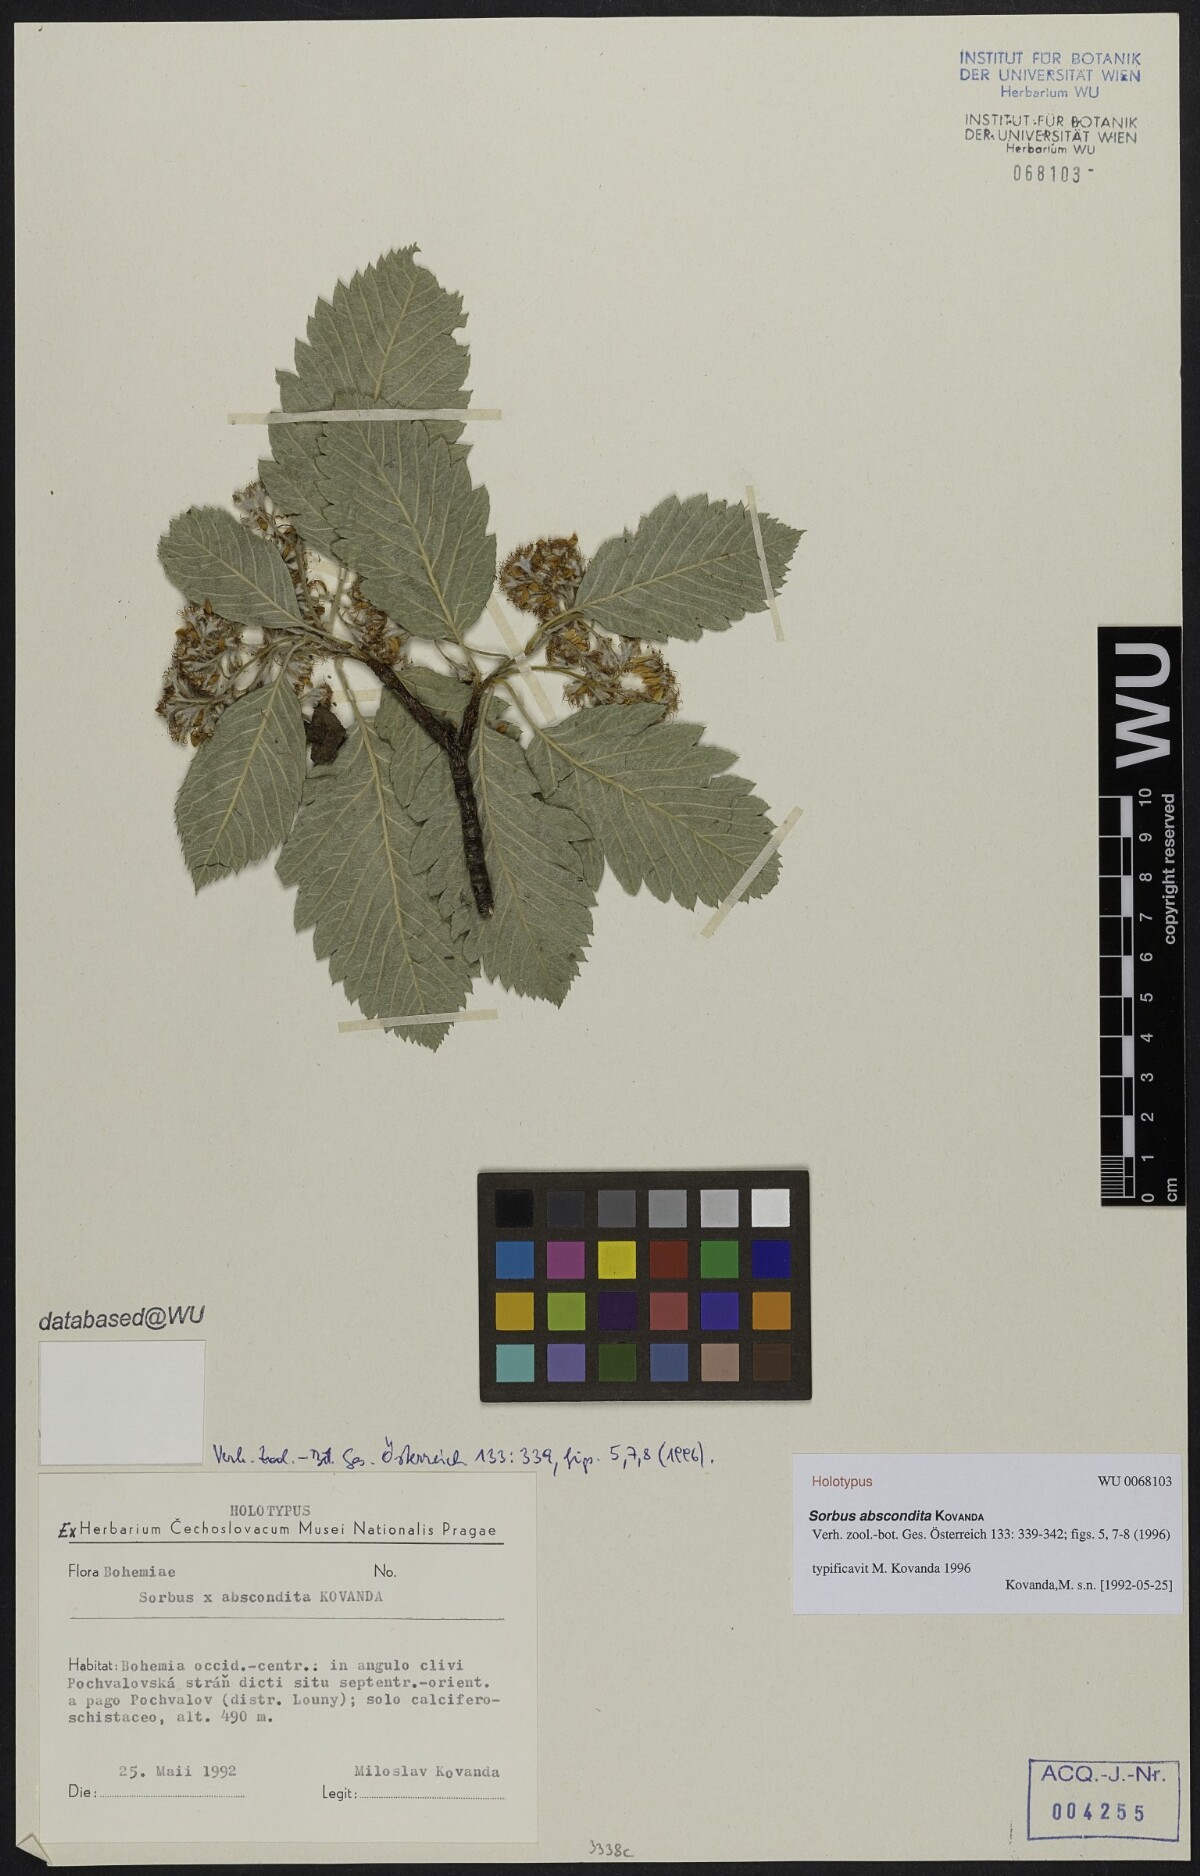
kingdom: Plantae
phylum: Tracheophyta
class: Magnoliopsida
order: Rosales
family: Rosaceae
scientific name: Rosaceae
